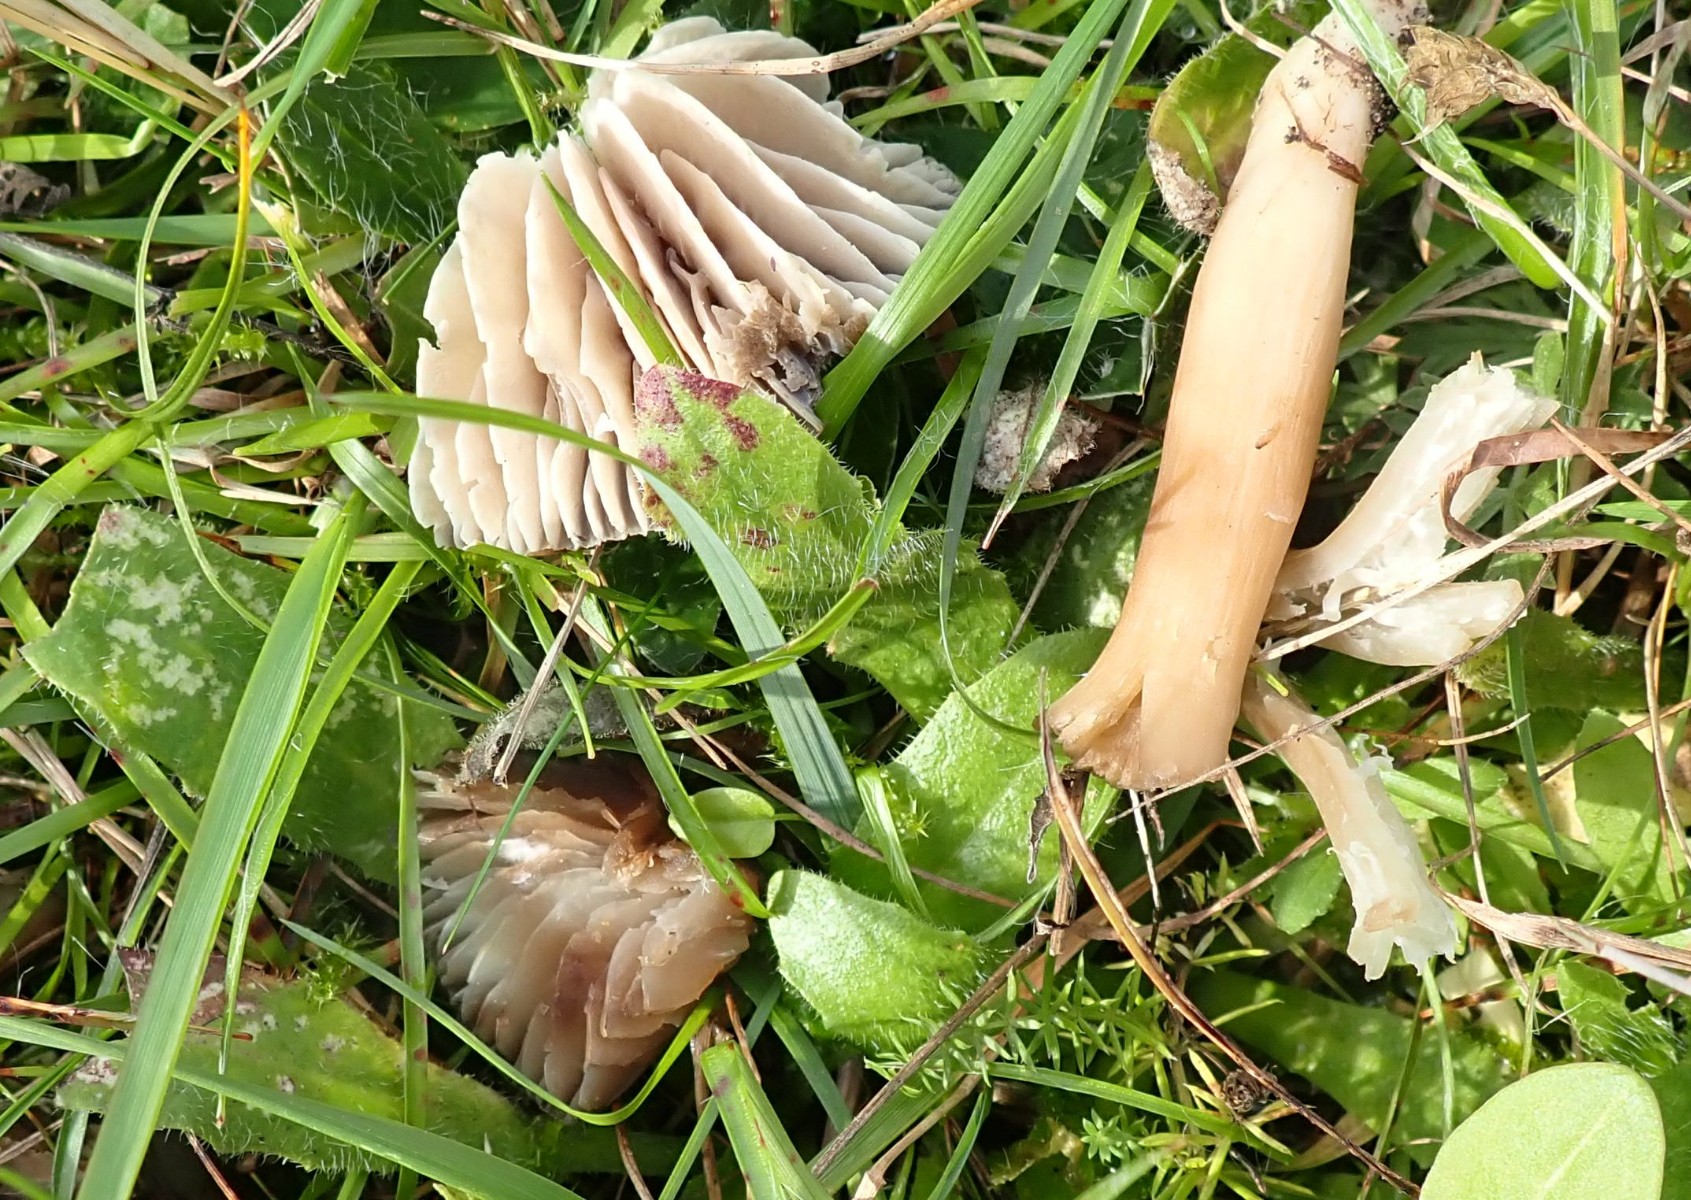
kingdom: Fungi
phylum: Basidiomycota
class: Agaricomycetes
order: Agaricales
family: Hygrophoraceae
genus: Neohygrocybe
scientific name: Neohygrocybe nitrata
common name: stinkende vokshat
